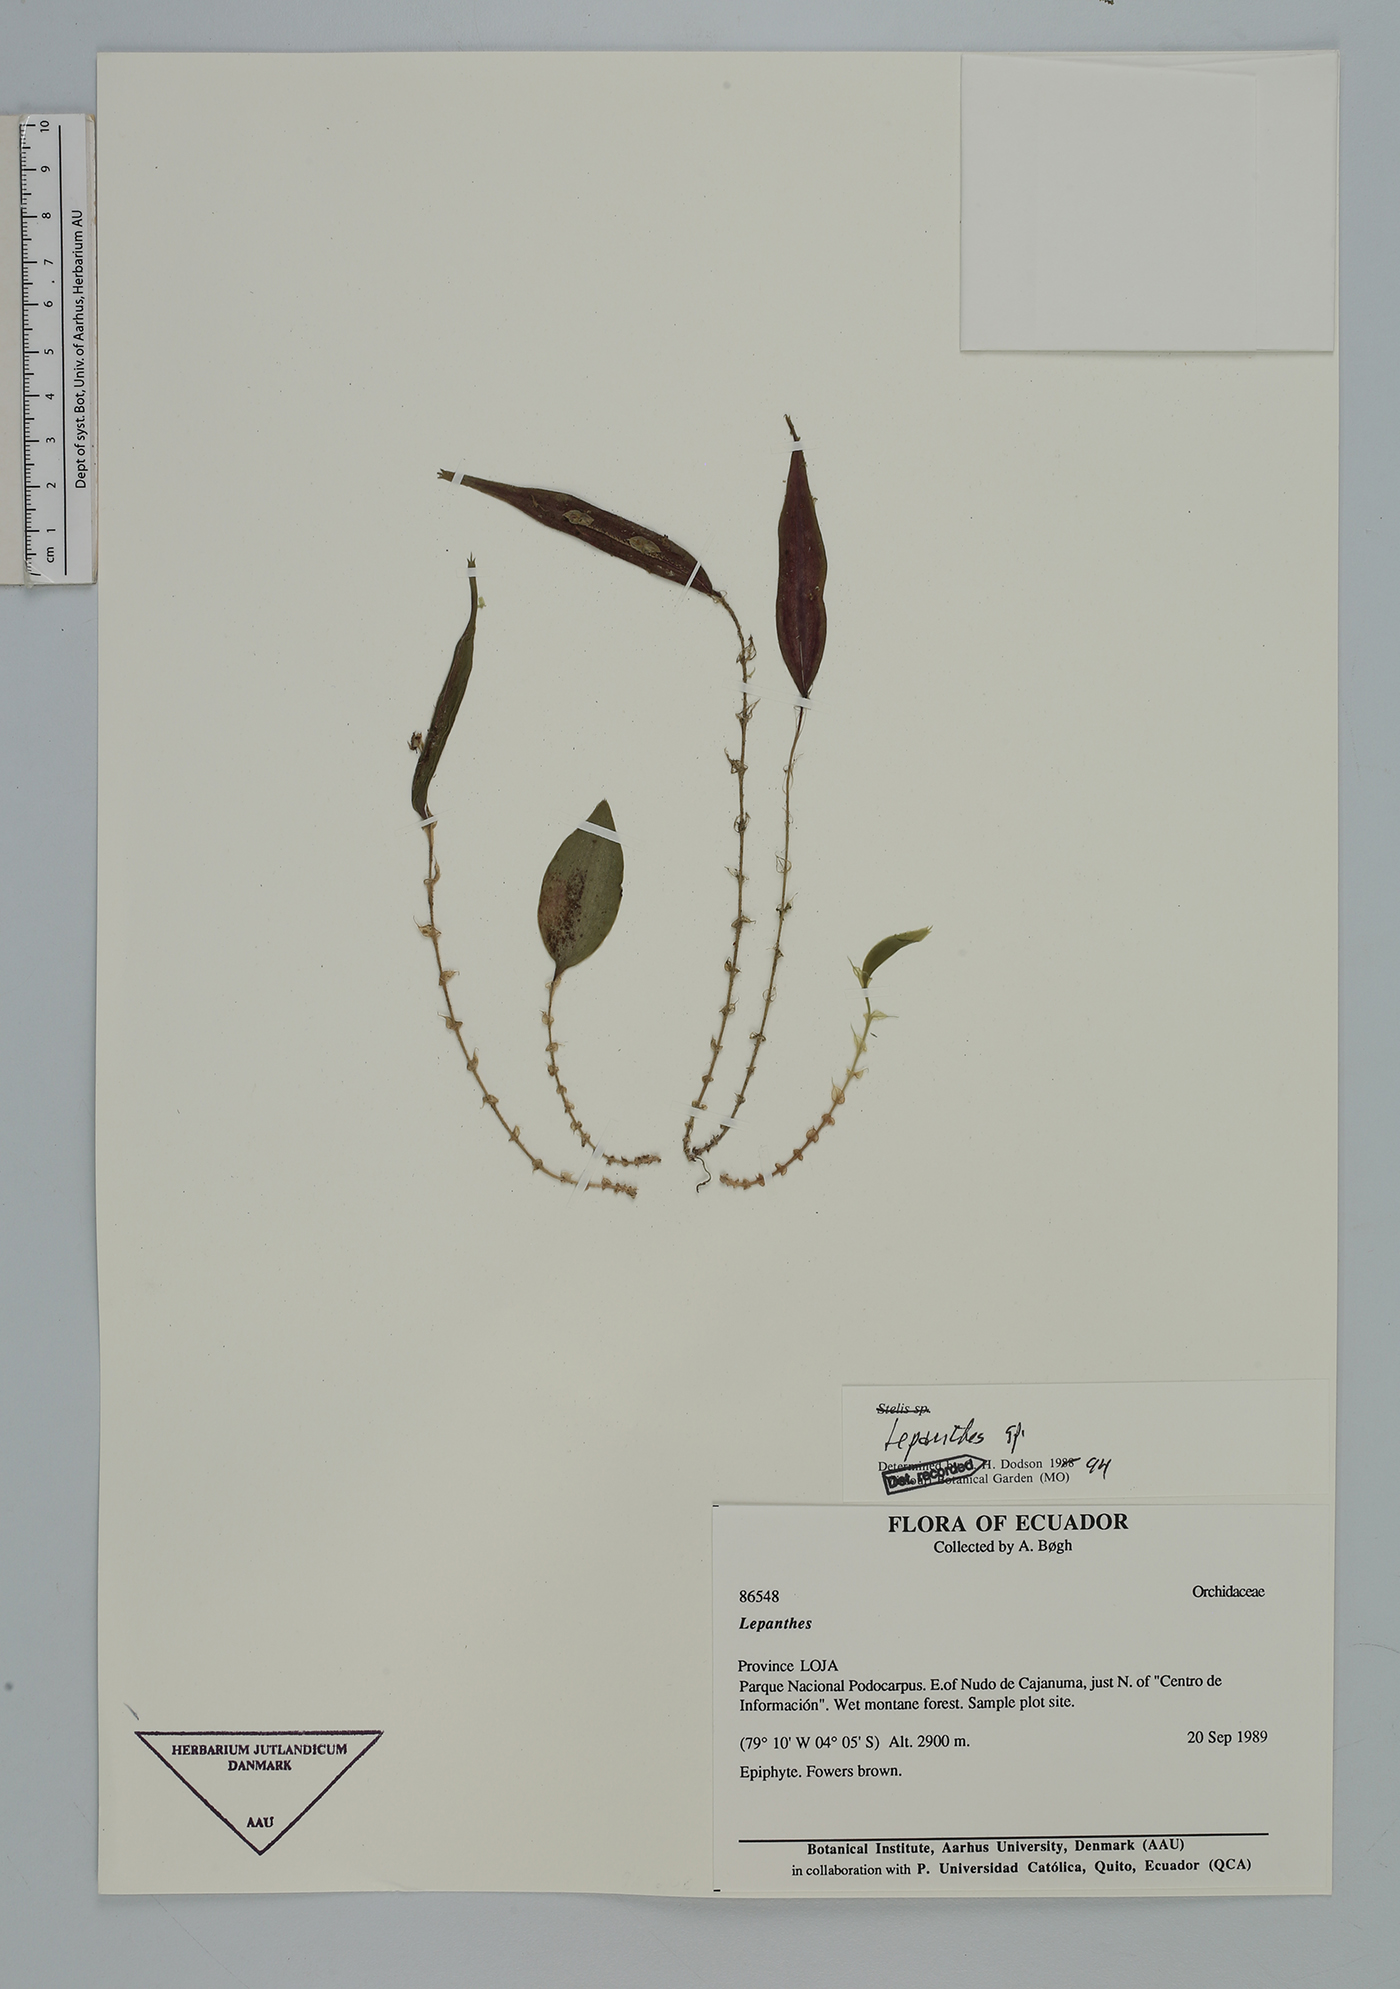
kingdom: Plantae
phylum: Tracheophyta
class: Liliopsida
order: Asparagales
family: Orchidaceae
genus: Lepanthes
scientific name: Lepanthes
